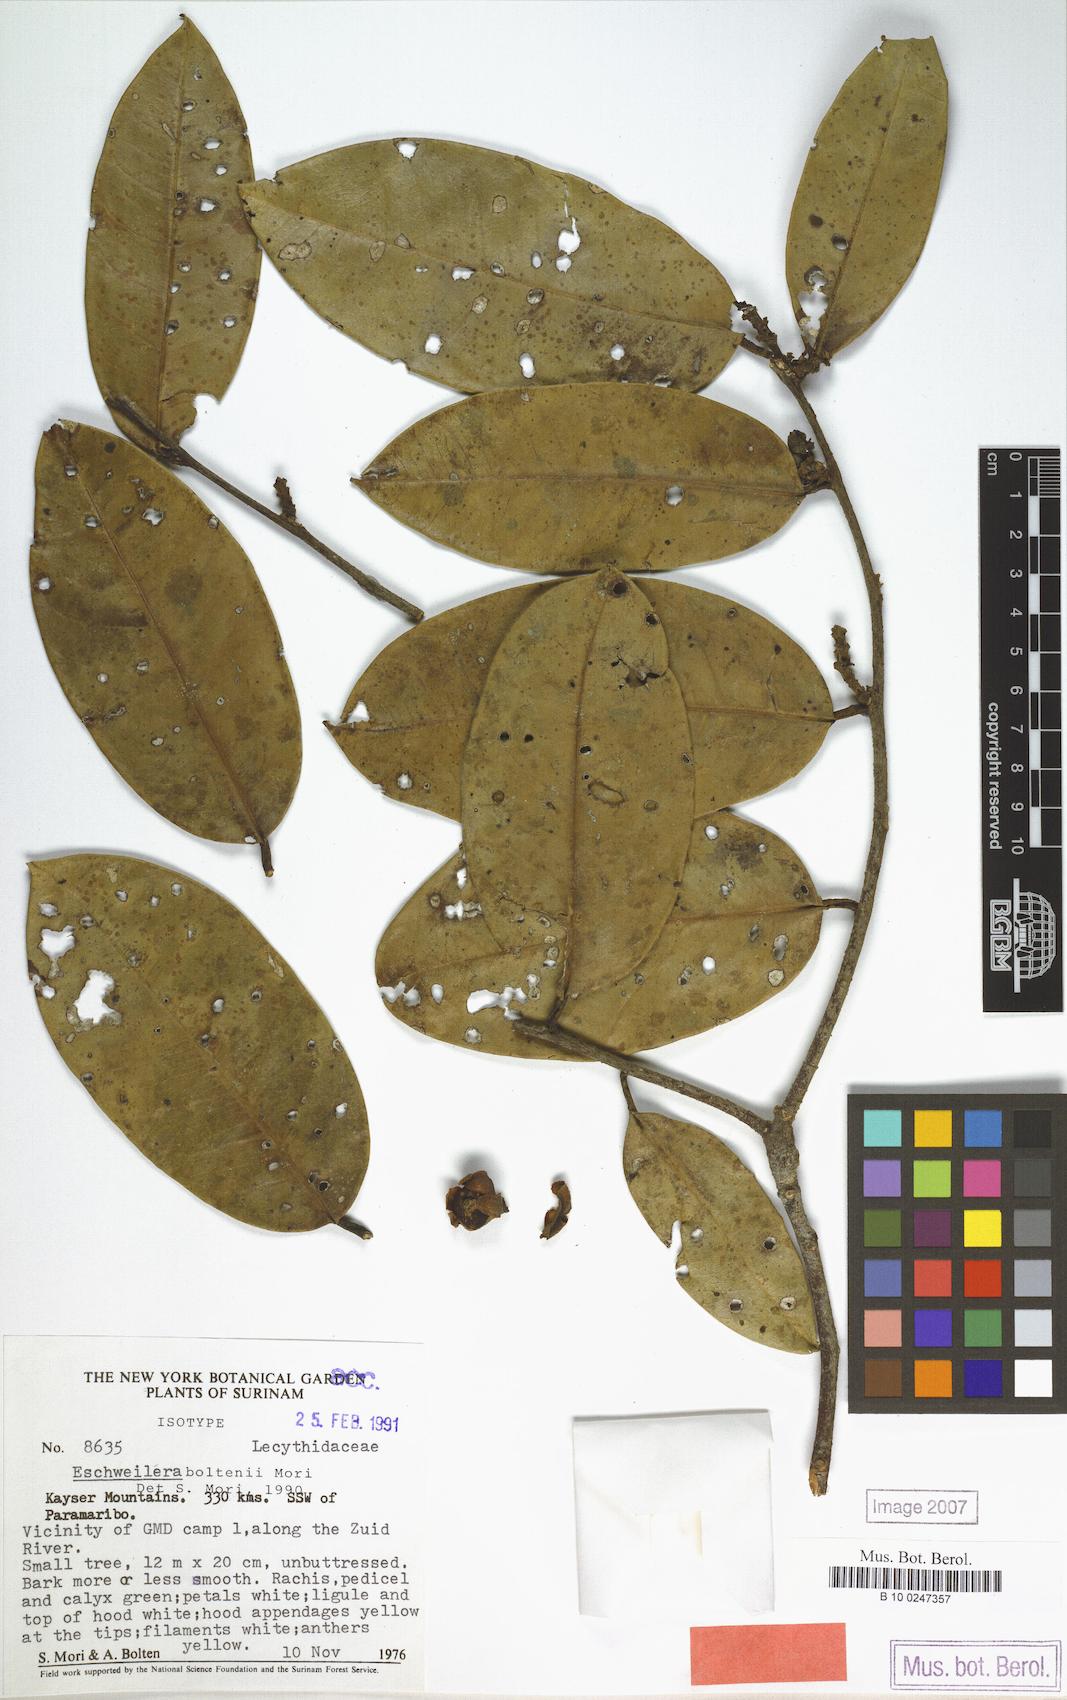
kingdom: Plantae
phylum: Tracheophyta
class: Magnoliopsida
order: Ericales
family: Lecythidaceae
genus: Eschweilera
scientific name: Eschweilera boltenii
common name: Bolten eschweilera
